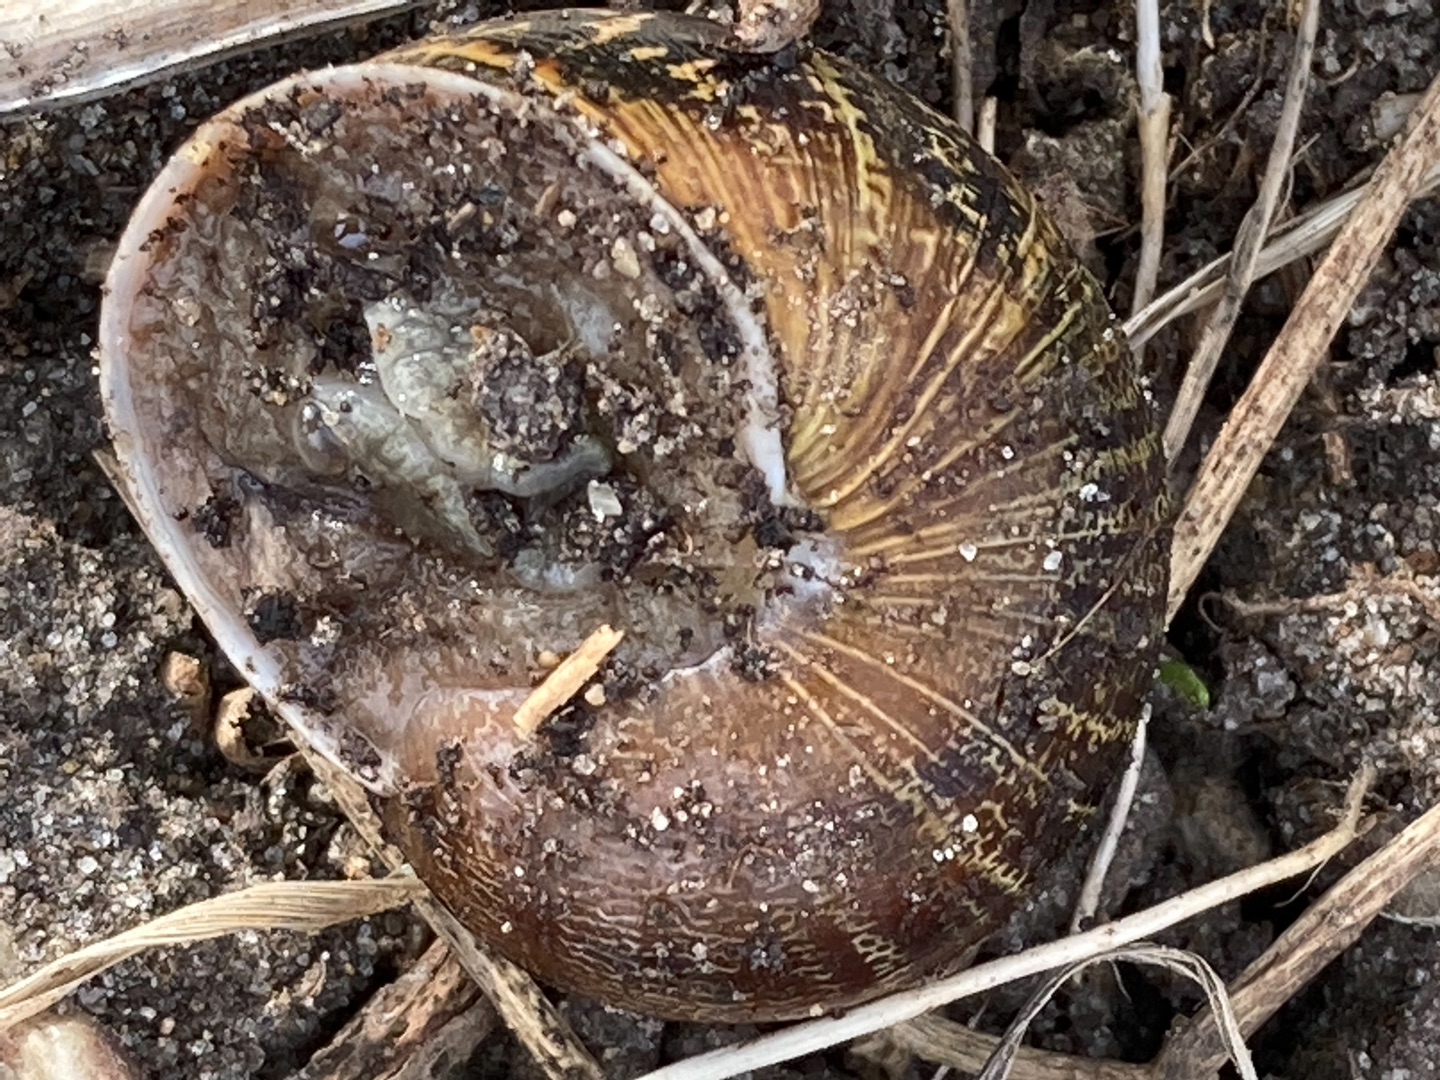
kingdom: Animalia
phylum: Mollusca
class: Gastropoda
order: Stylommatophora
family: Helicidae
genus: Cornu
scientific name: Cornu aspersum
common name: Plettet voldsnegl
